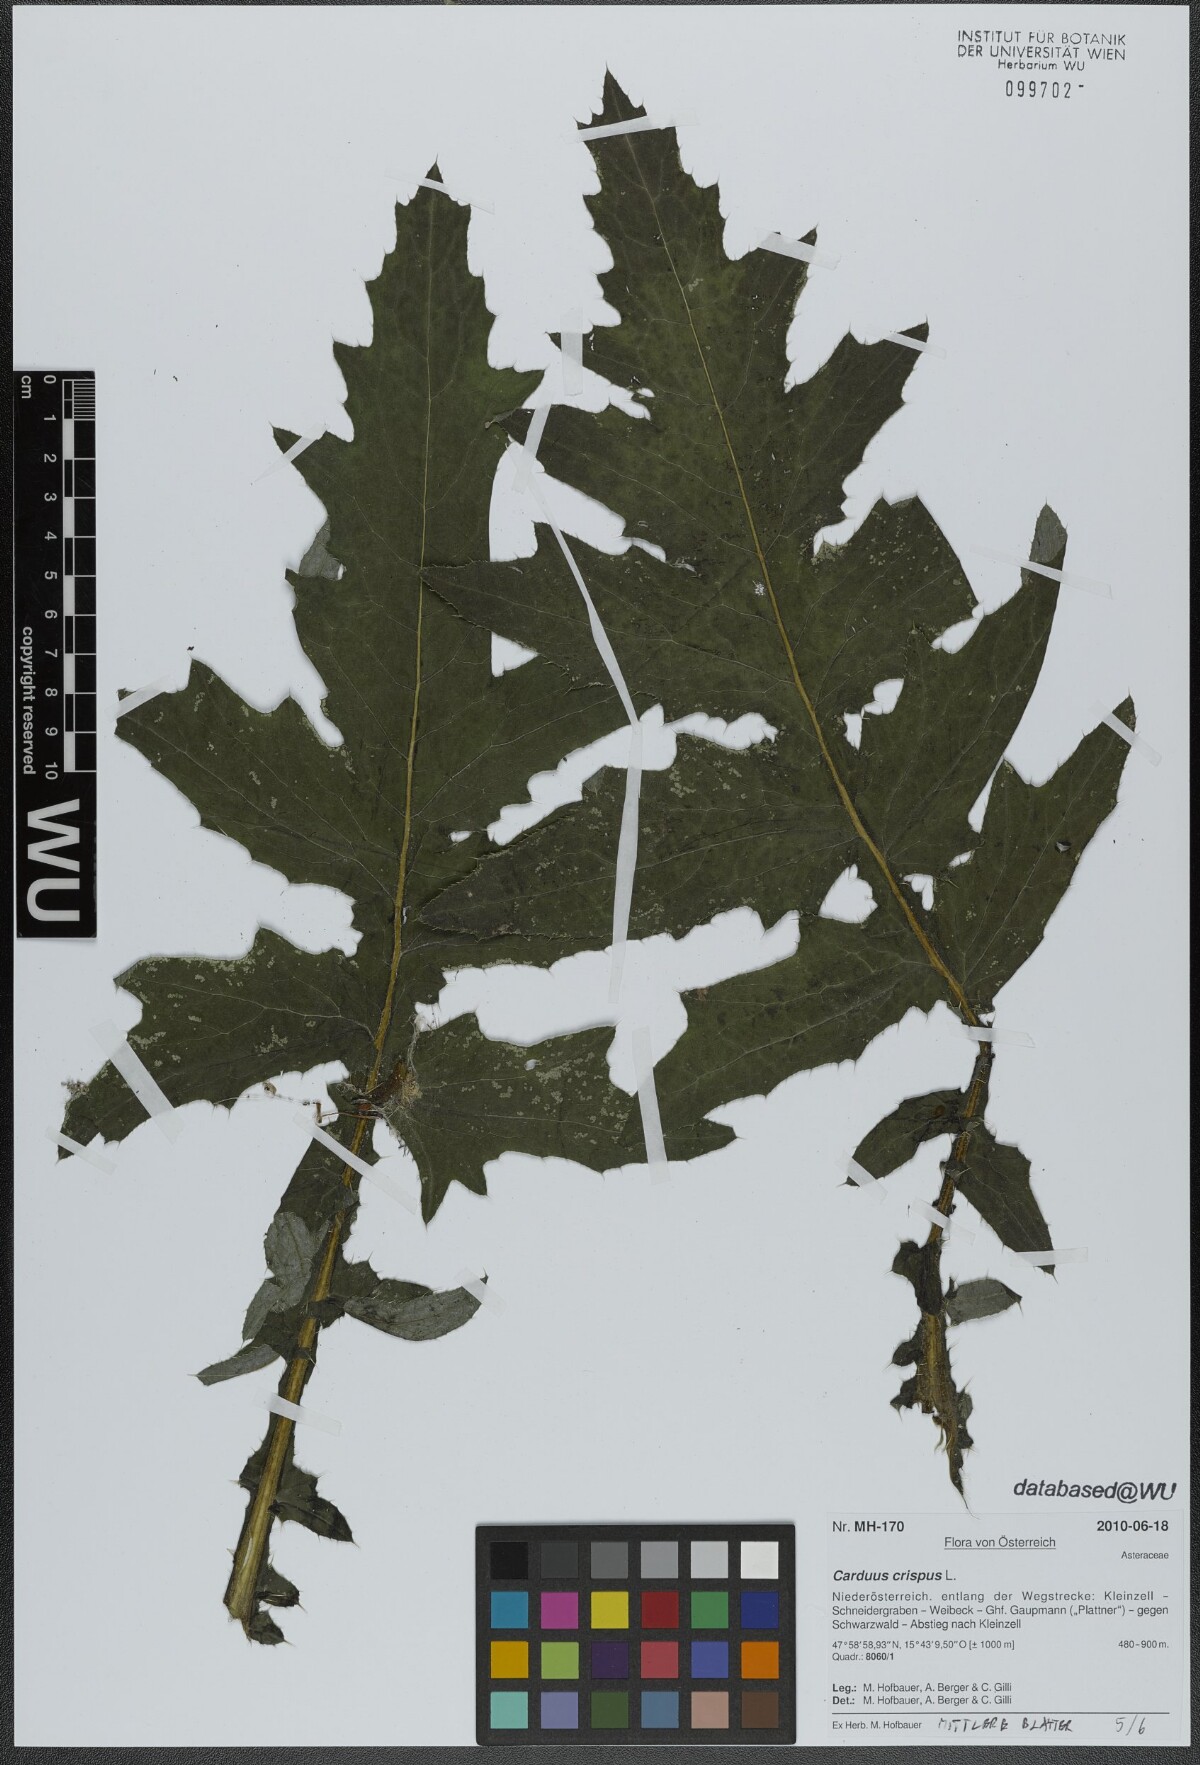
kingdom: Plantae
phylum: Tracheophyta
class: Magnoliopsida
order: Asterales
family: Asteraceae
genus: Carduus
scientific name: Carduus crispus
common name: Welted thistle
